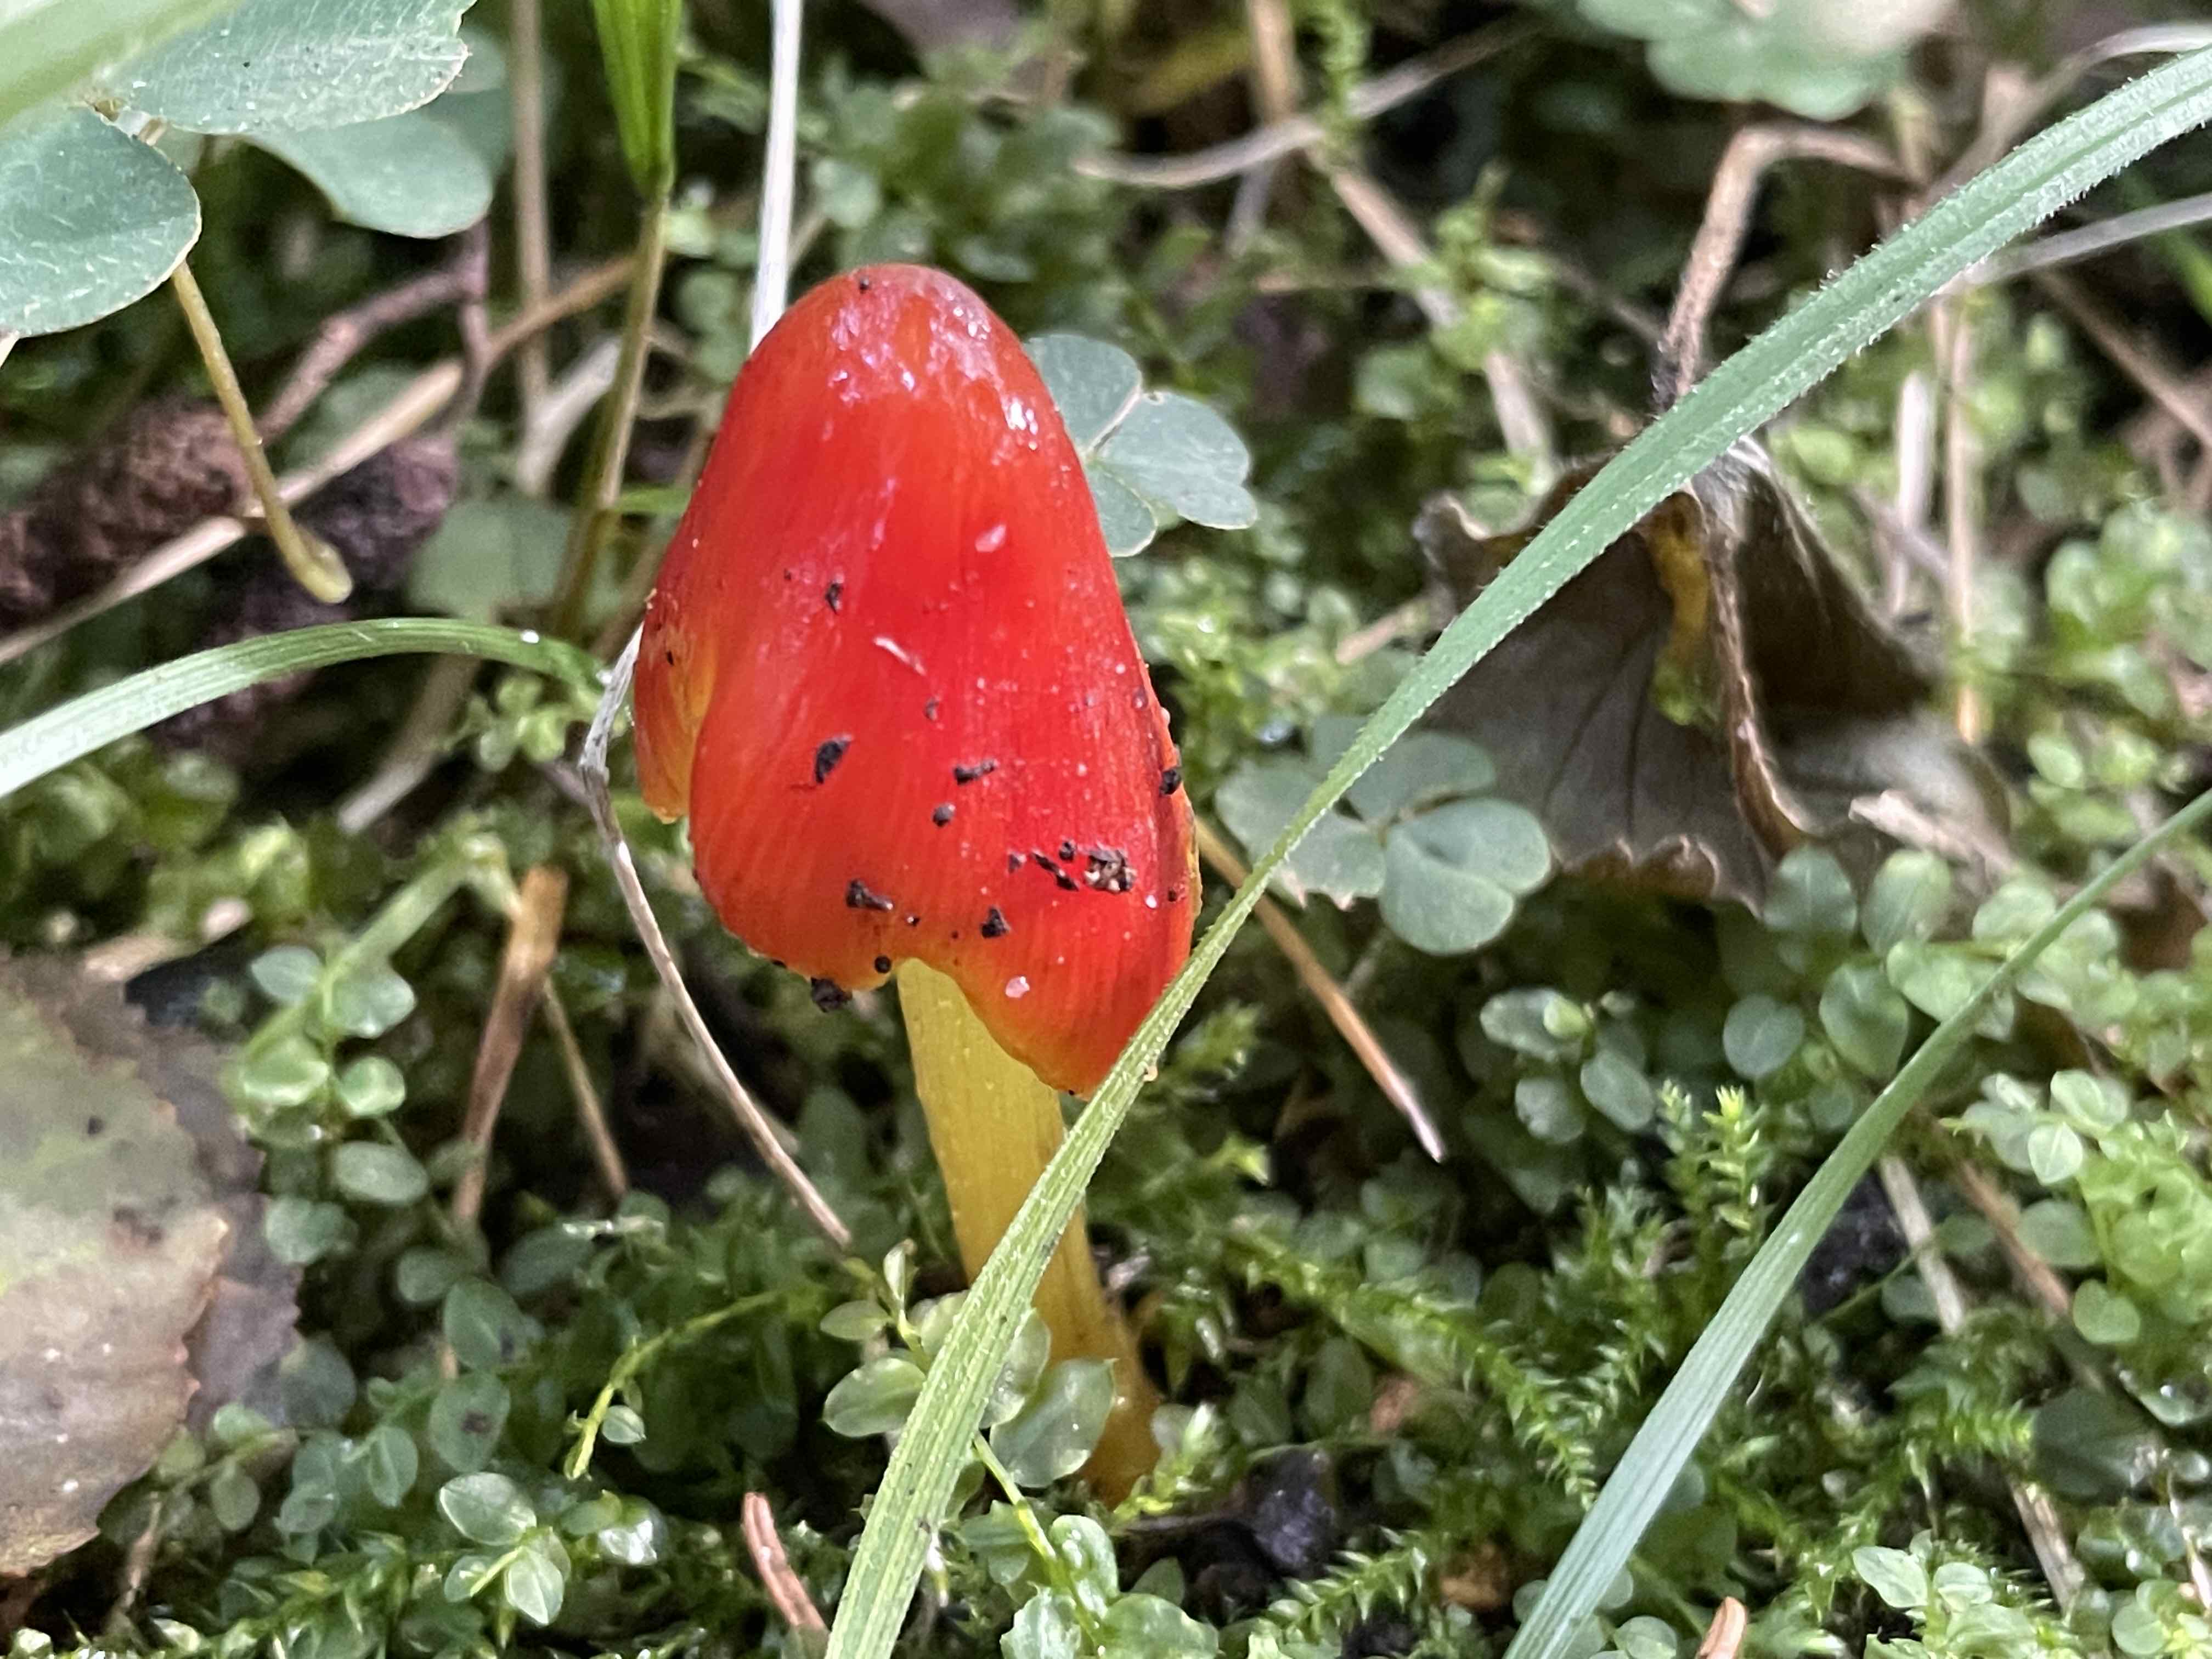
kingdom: Fungi
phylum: Basidiomycota
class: Agaricomycetes
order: Agaricales
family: Hygrophoraceae
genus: Hygrocybe
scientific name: Hygrocybe conica
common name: kegle-vokshat
